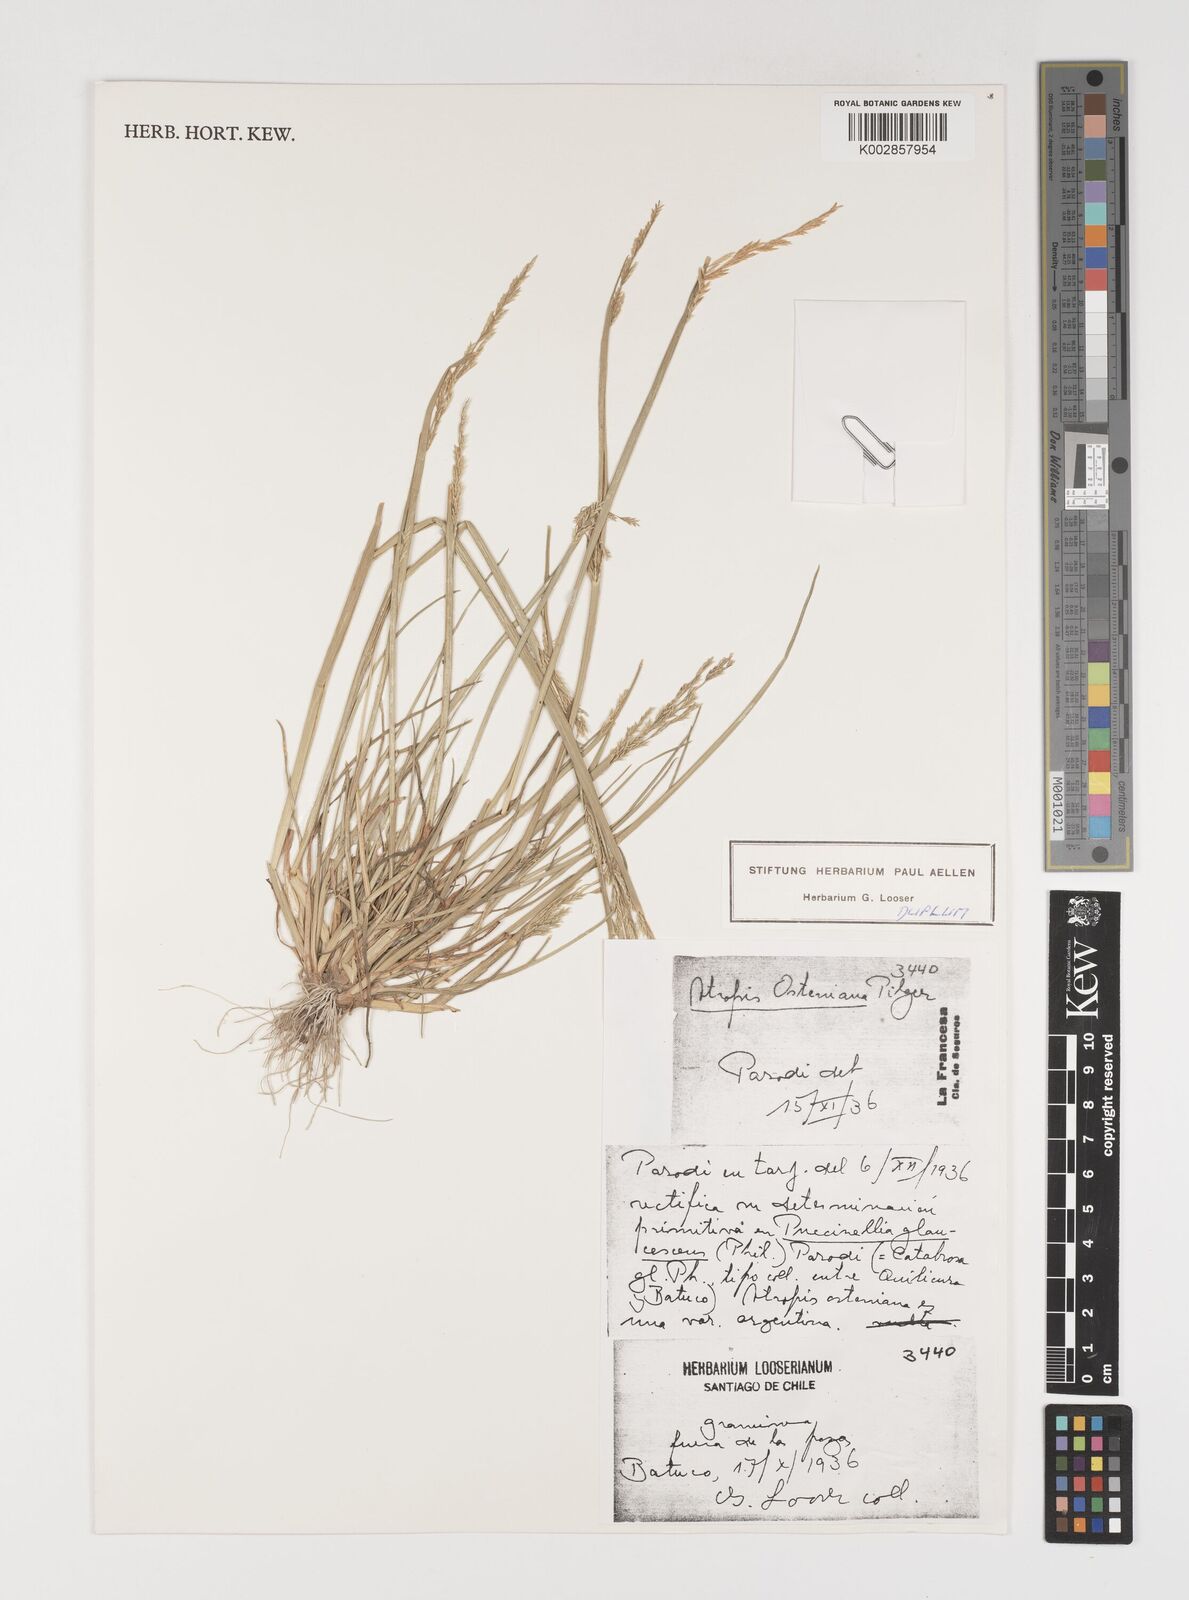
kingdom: Plantae
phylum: Tracheophyta
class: Liliopsida
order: Poales
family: Poaceae
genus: Puccinellia
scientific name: Puccinellia glaucescens
